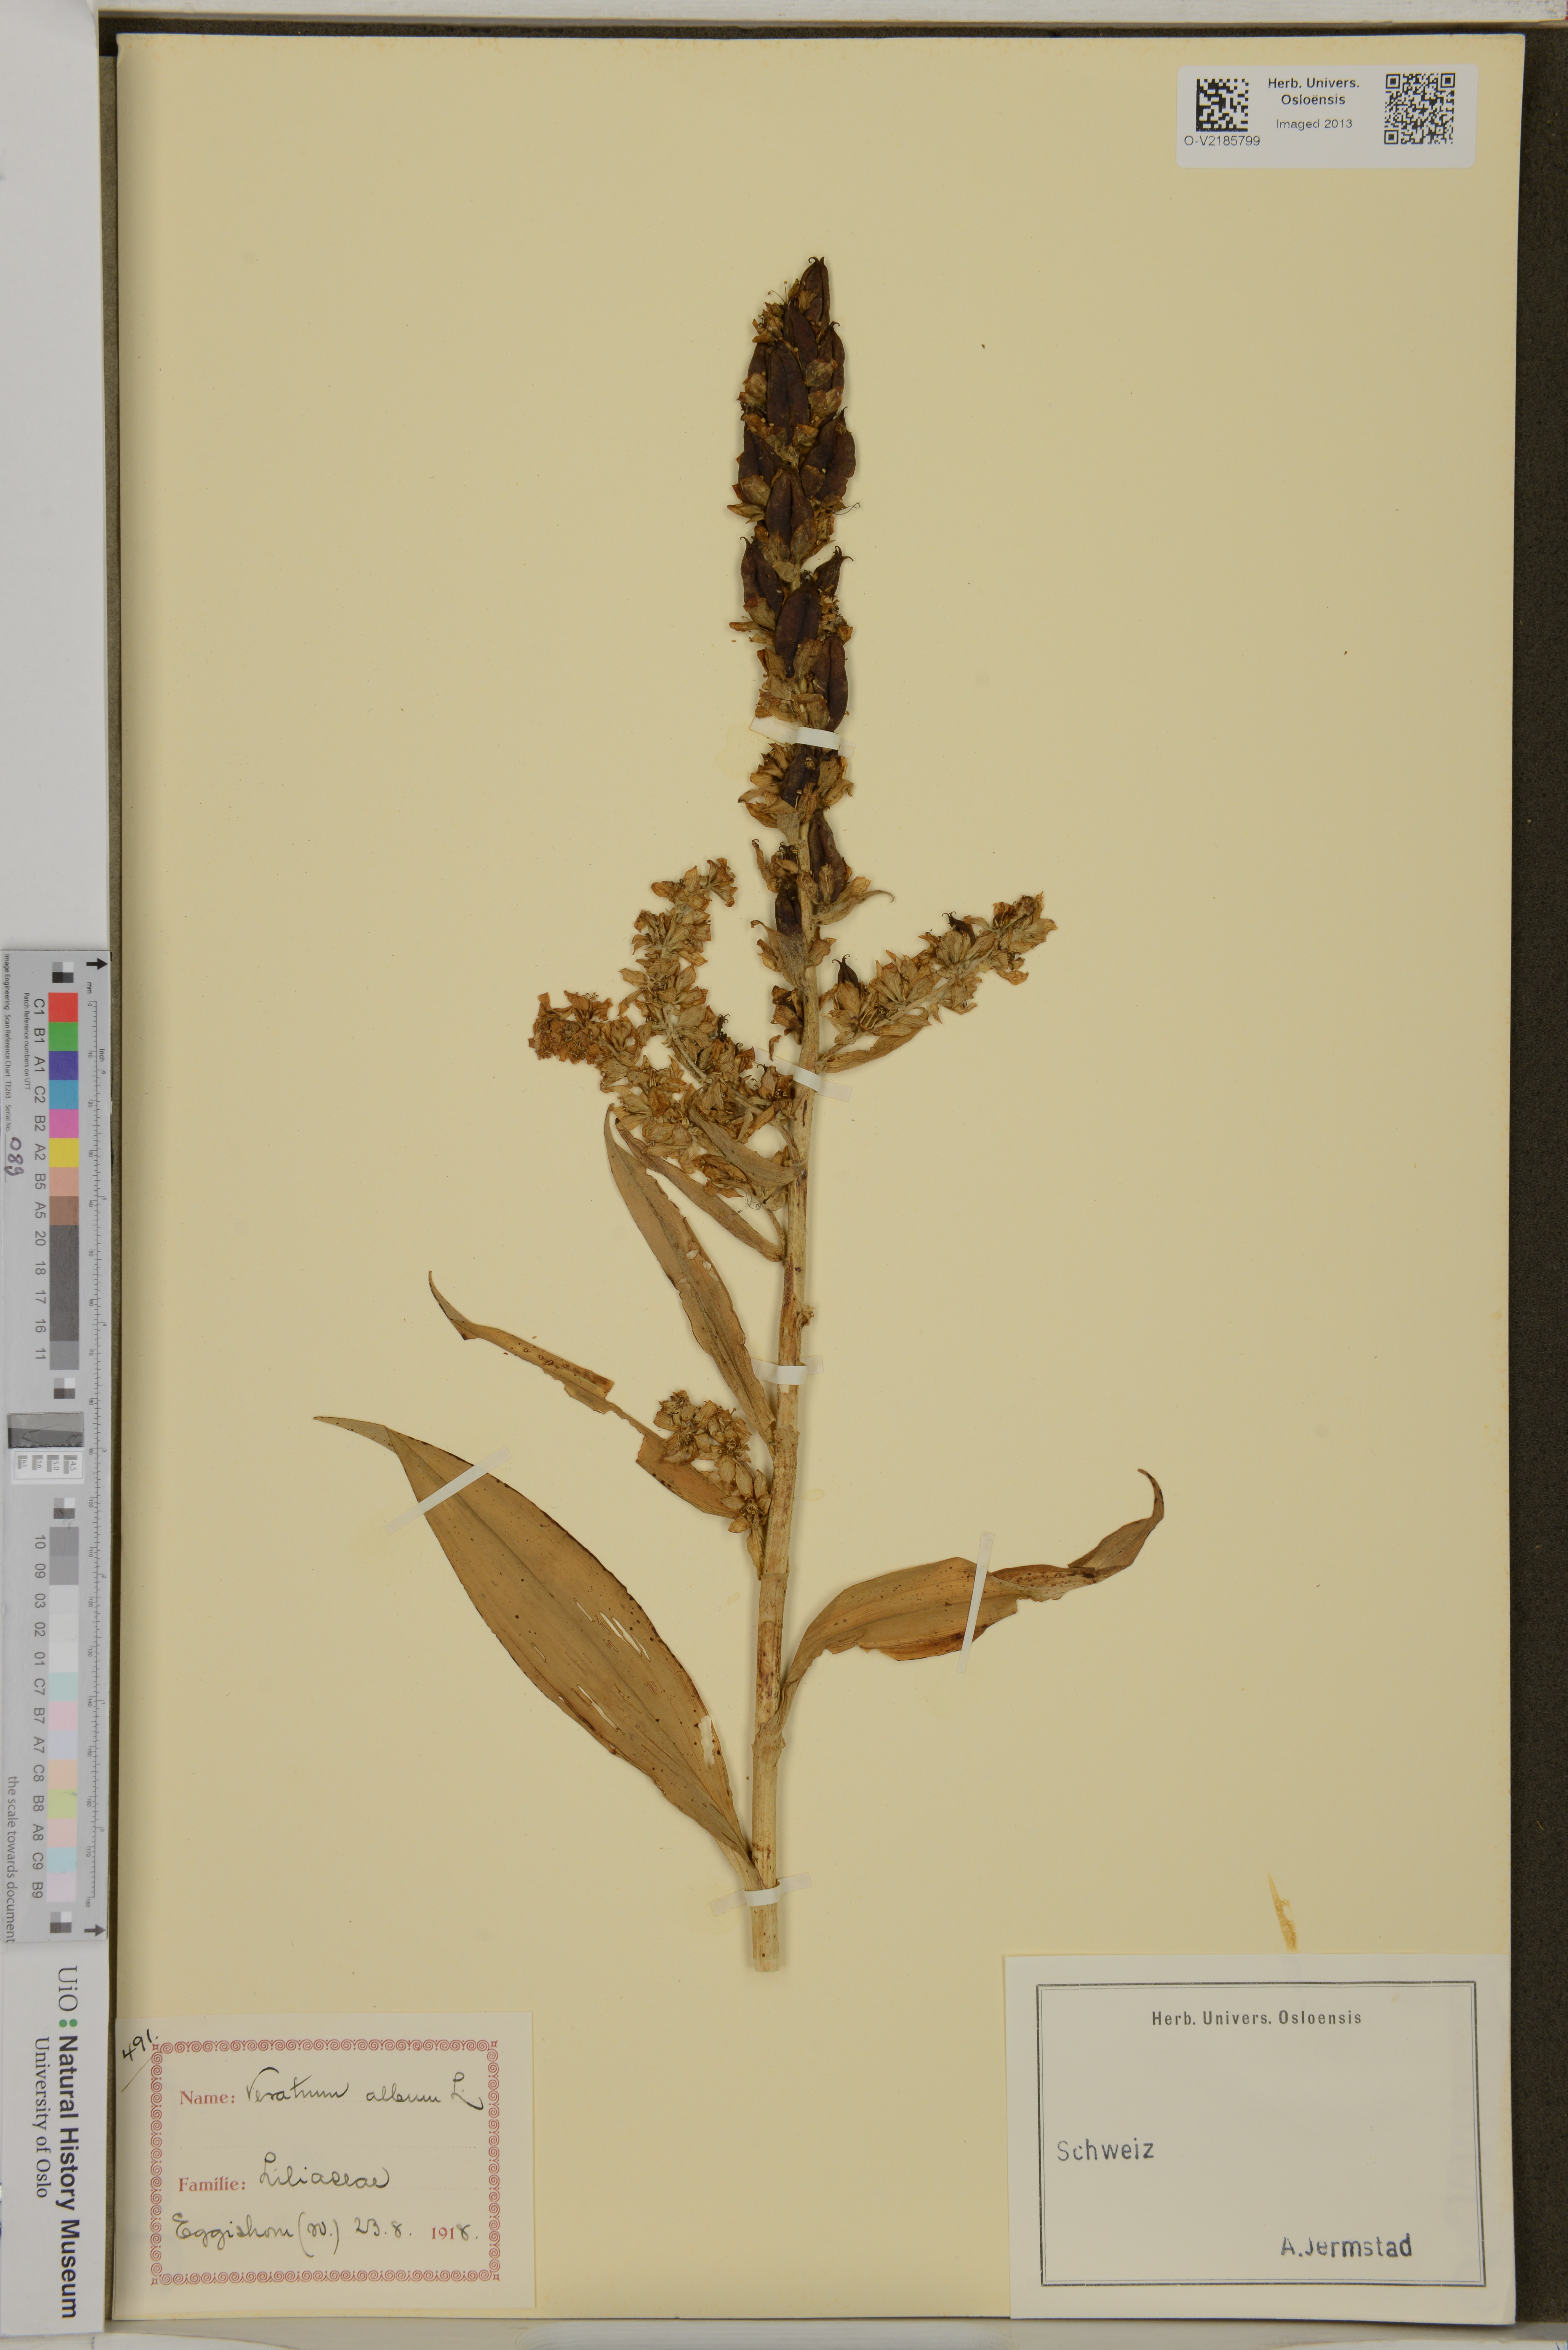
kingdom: Plantae
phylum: Tracheophyta
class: Liliopsida
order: Liliales
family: Melanthiaceae
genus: Veratrum
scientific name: Veratrum album
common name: White veratrum
